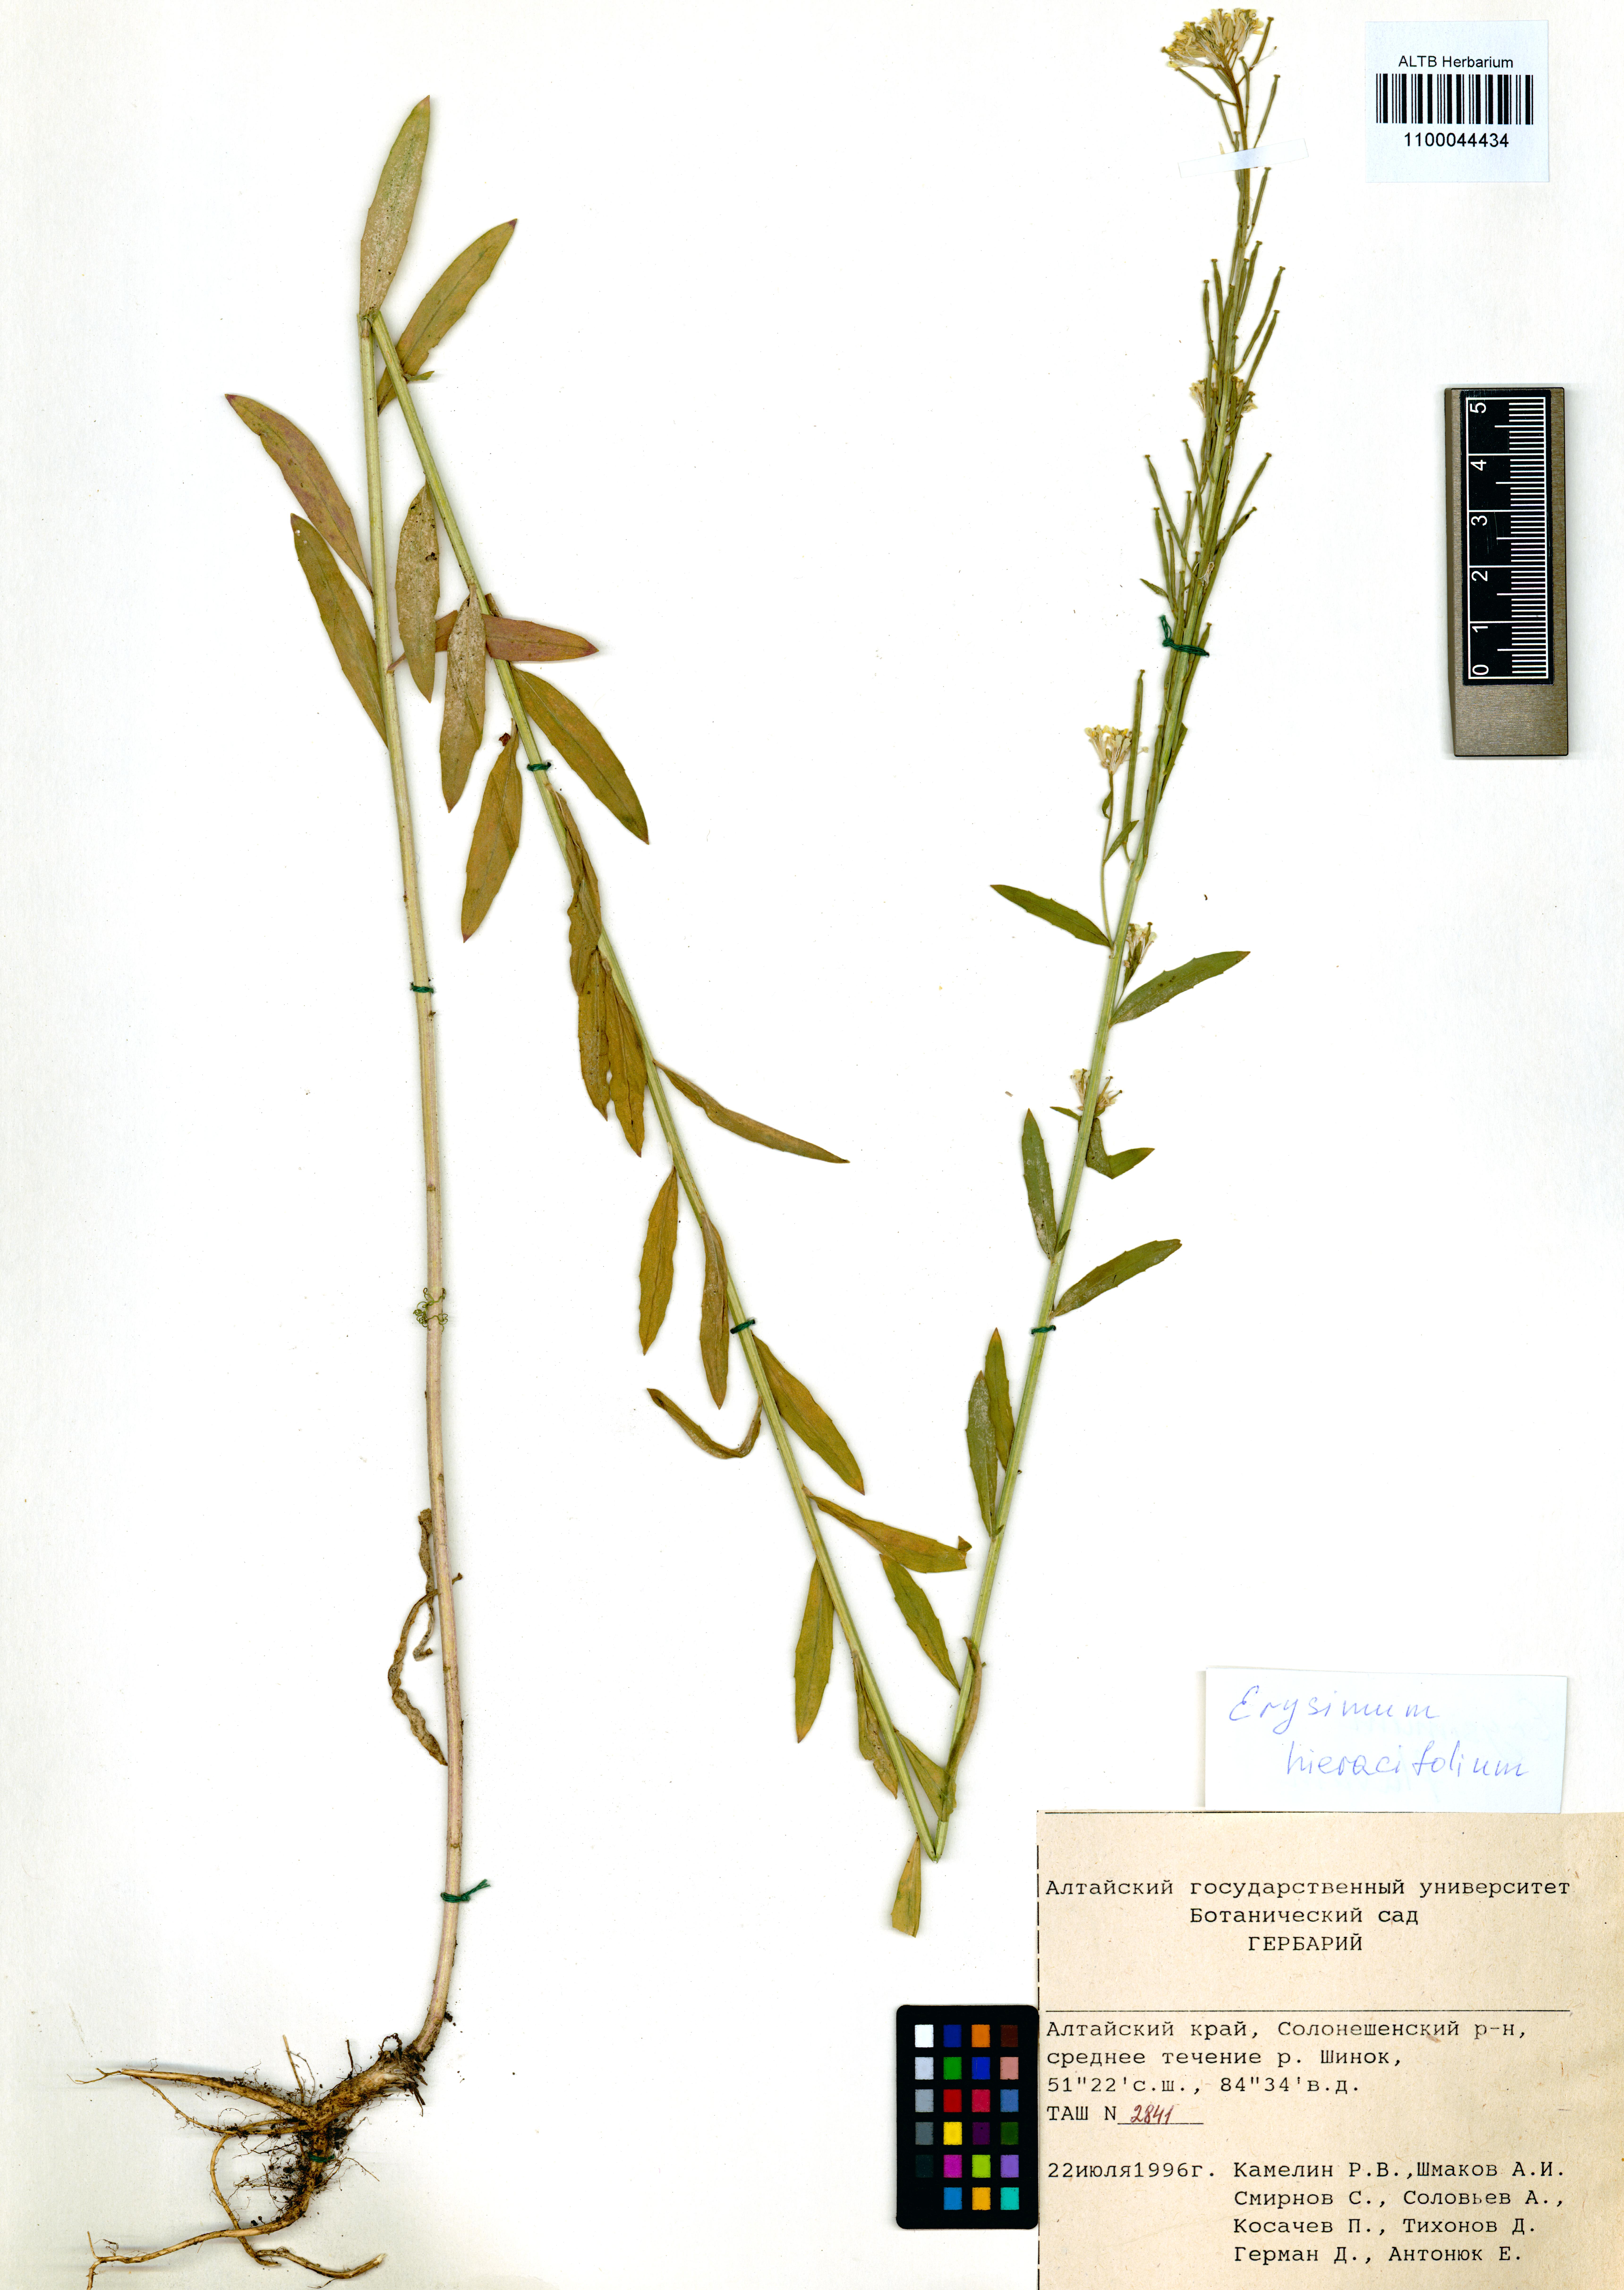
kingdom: Plantae
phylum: Tracheophyta
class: Magnoliopsida
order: Brassicales
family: Brassicaceae
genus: Erysimum
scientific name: Erysimum hieraciifolium
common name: European wallflower
